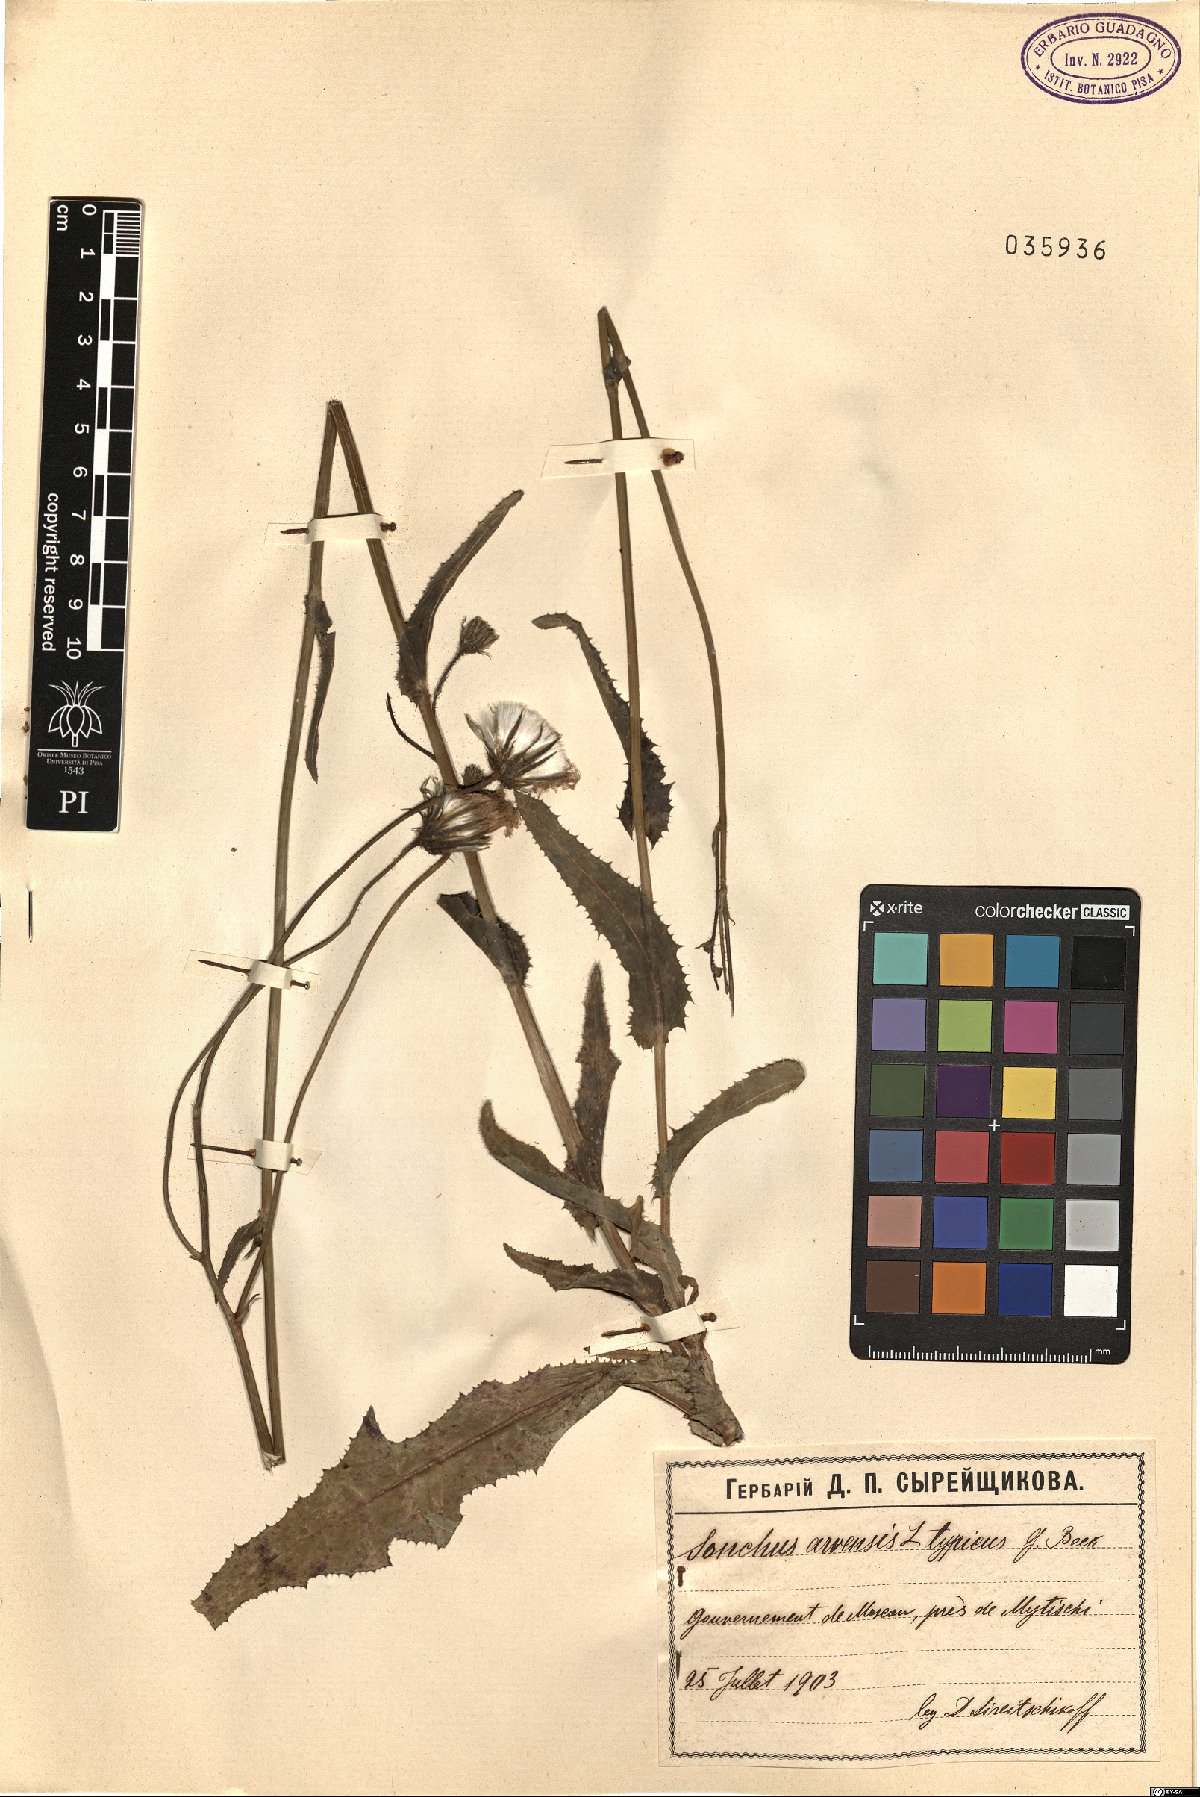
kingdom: Plantae
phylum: Tracheophyta
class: Magnoliopsida
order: Asterales
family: Asteraceae
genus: Sonchus
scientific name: Sonchus arvensis
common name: Perennial sow-thistle
